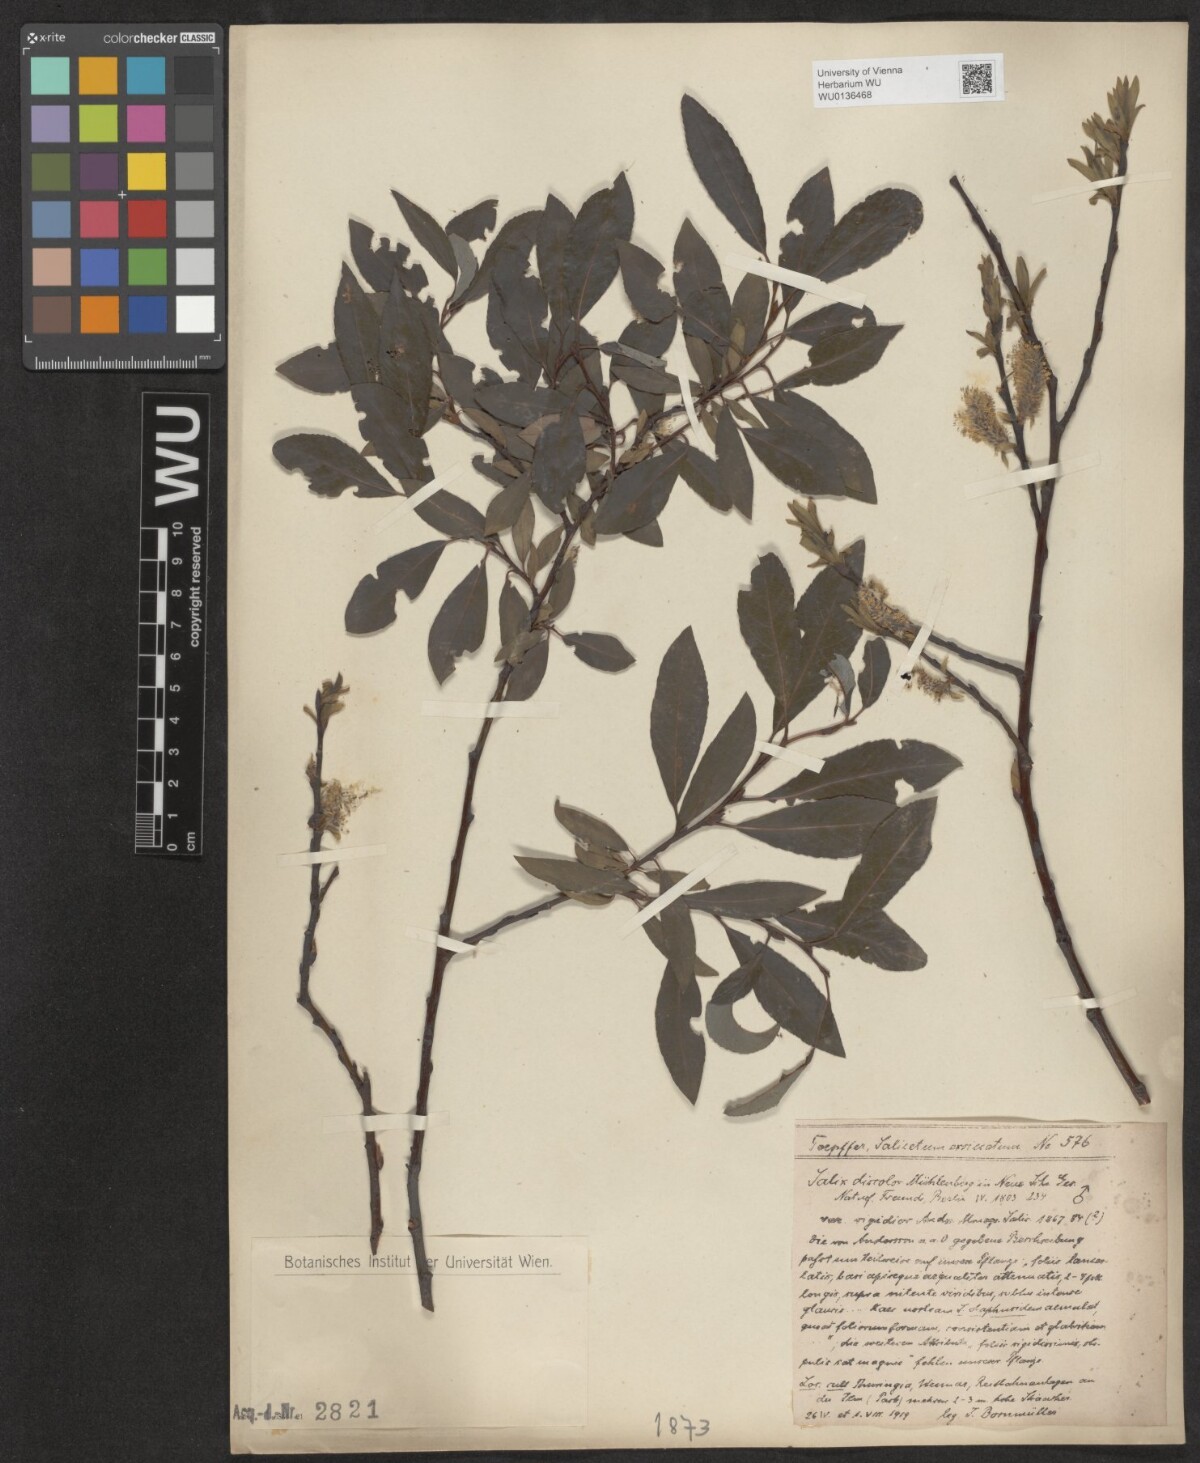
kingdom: Plantae
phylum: Tracheophyta
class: Magnoliopsida
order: Malpighiales
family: Salicaceae
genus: Salix
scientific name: Salix discolor
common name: Glaucous willow
